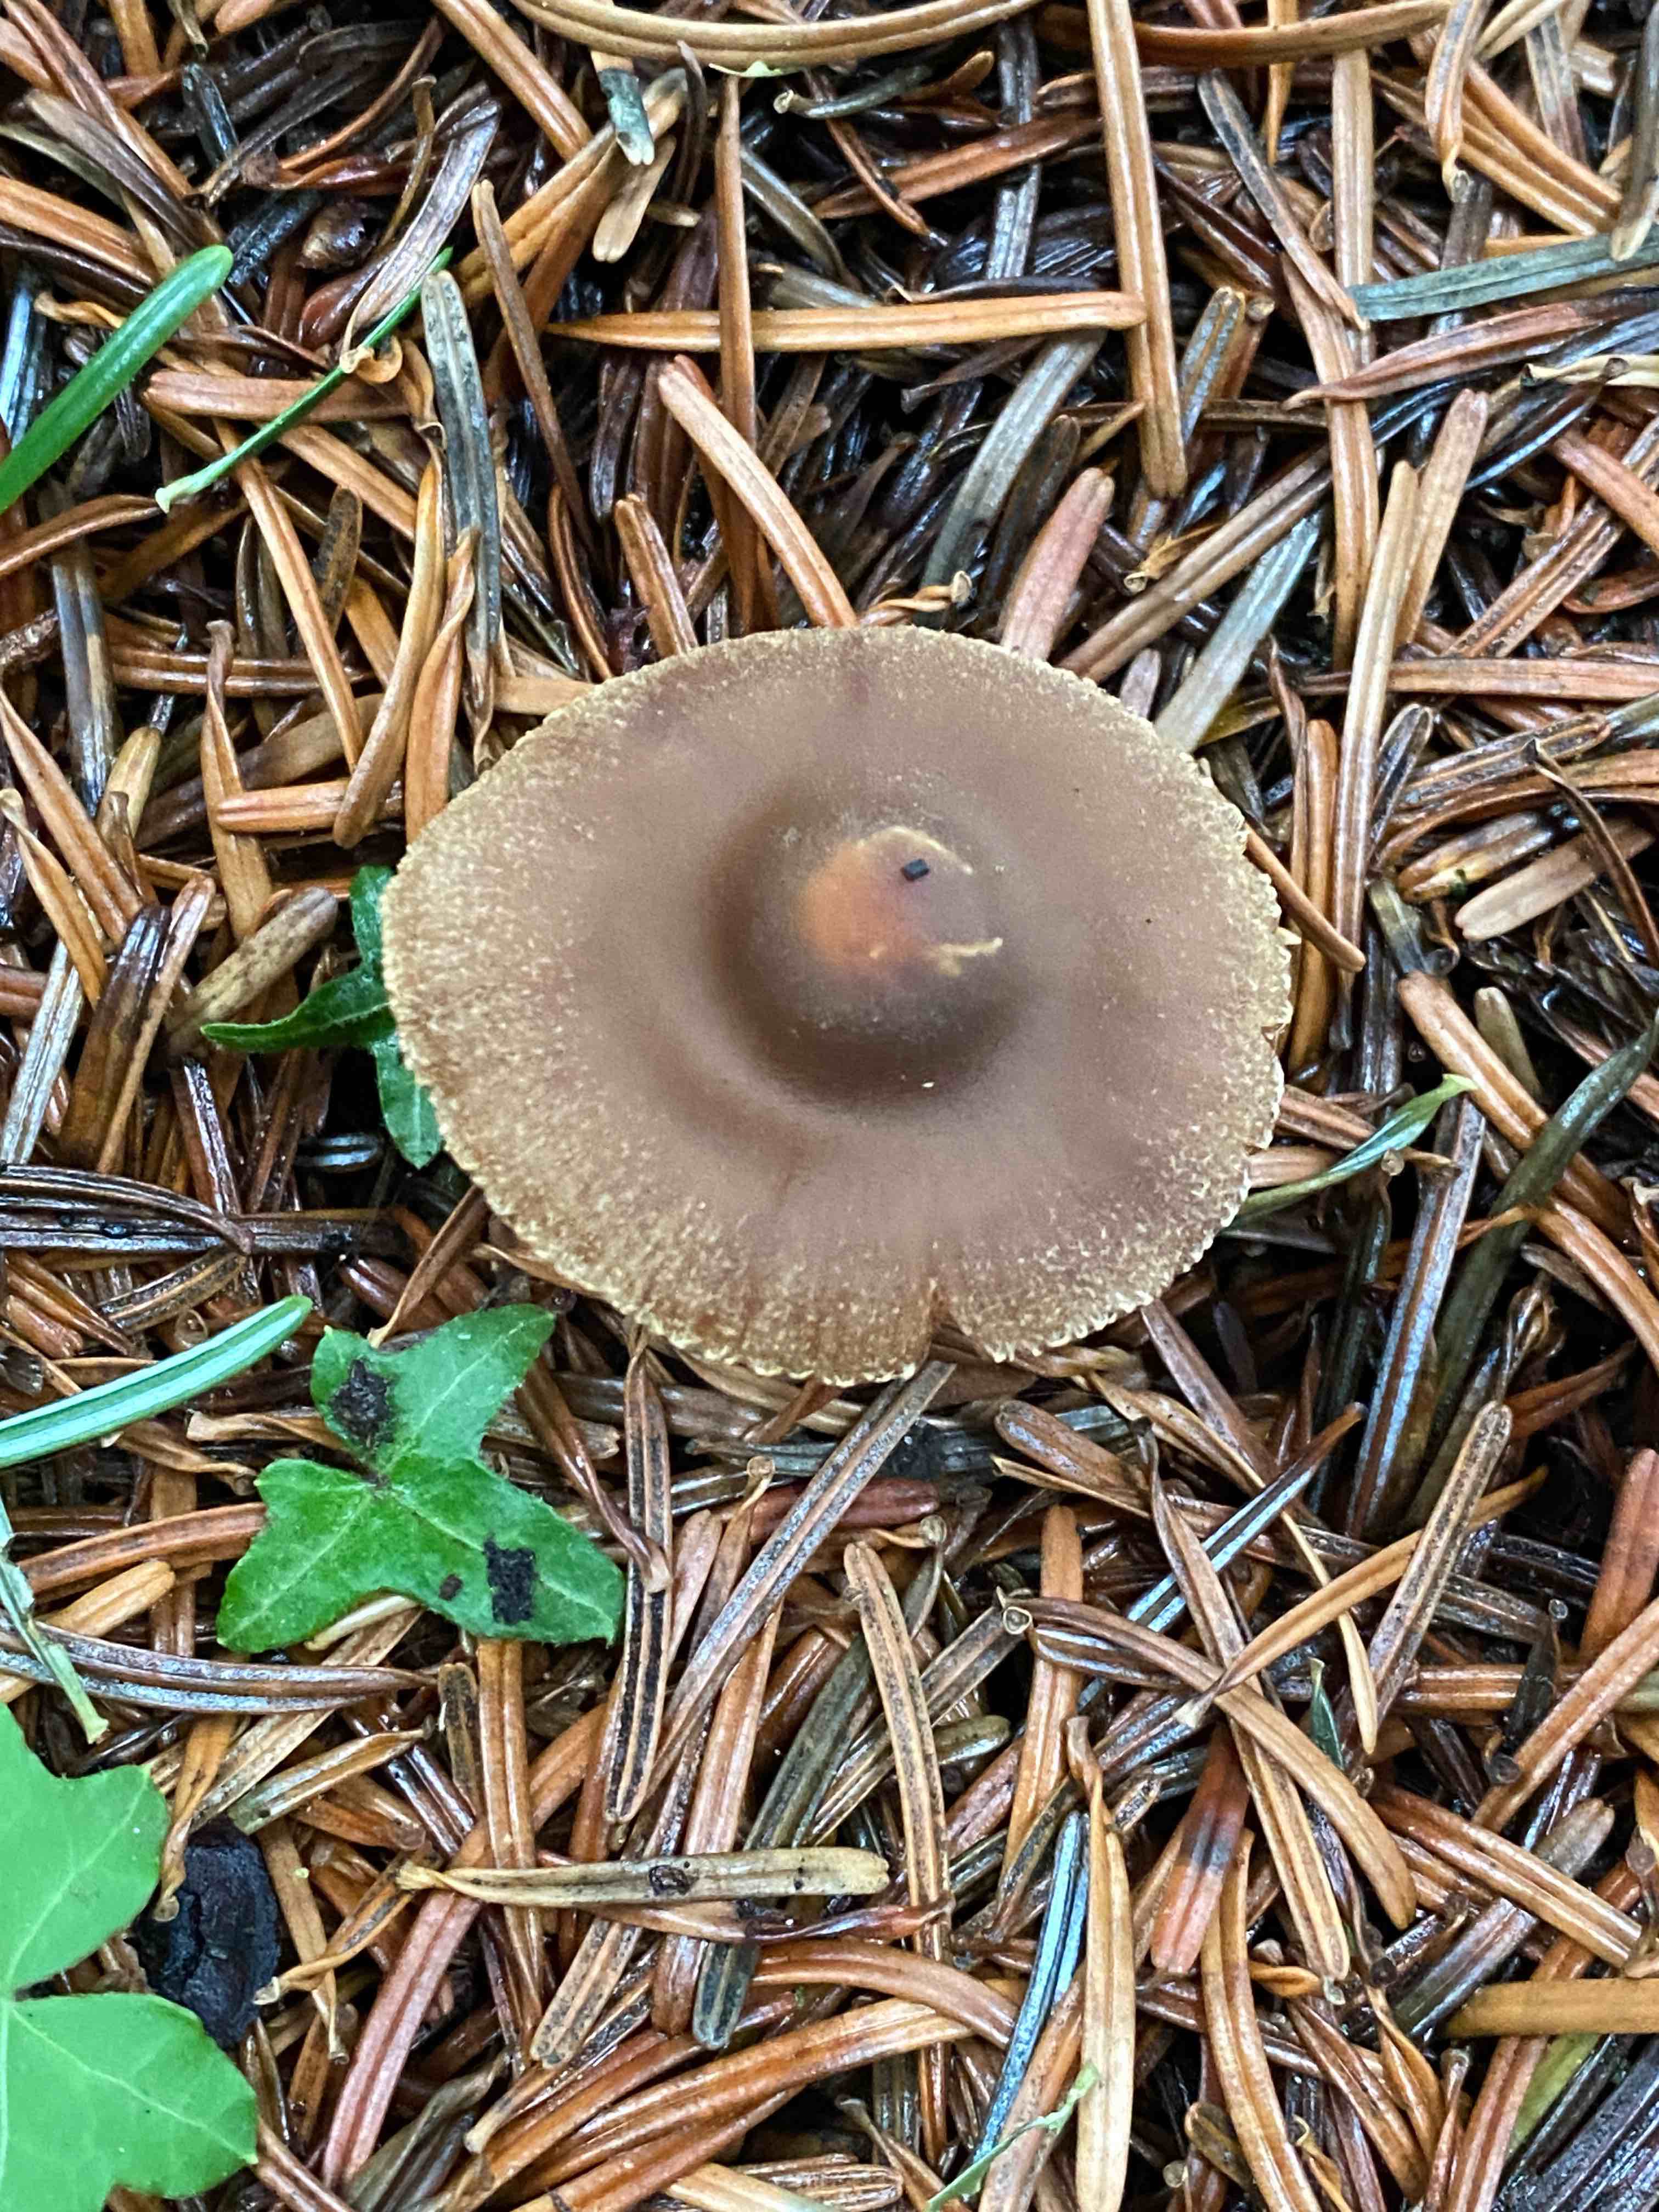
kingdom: Fungi
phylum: Basidiomycota
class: Agaricomycetes
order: Agaricales
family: Cortinariaceae
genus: Cortinarius
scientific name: Cortinarius
